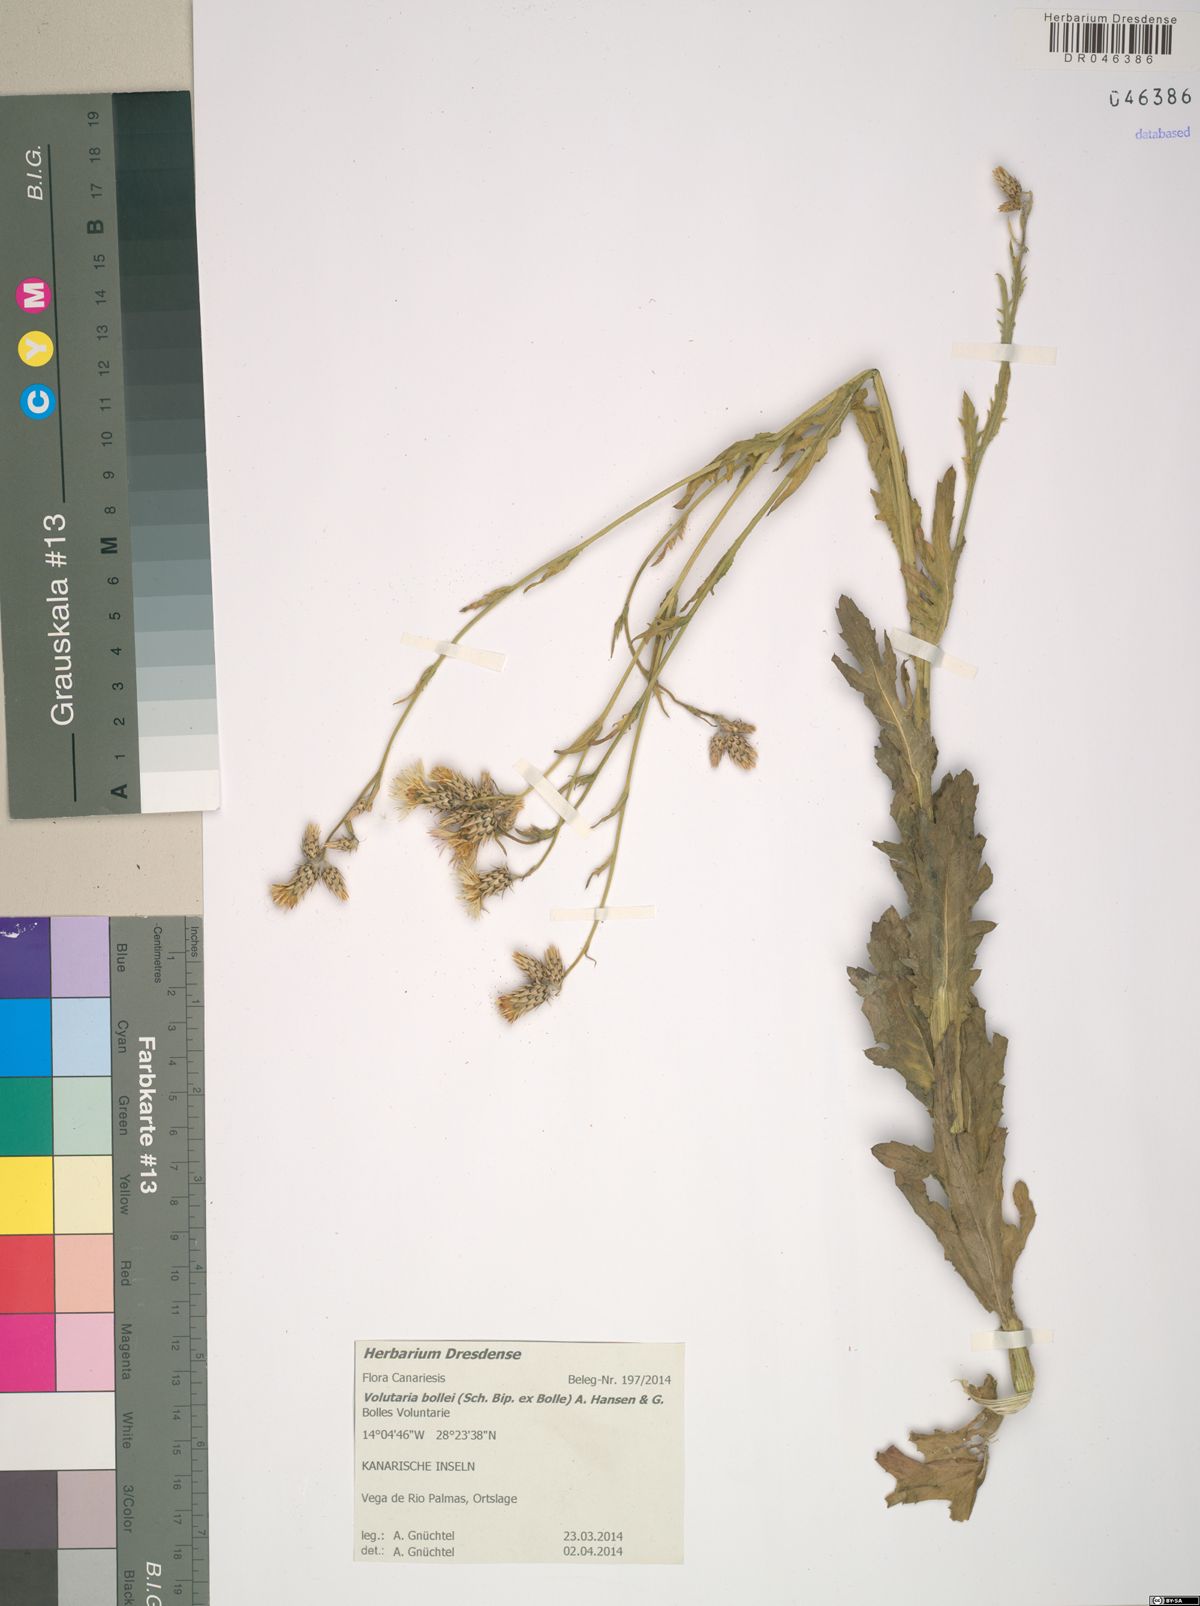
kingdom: Plantae
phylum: Tracheophyta
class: Magnoliopsida
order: Asterales
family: Asteraceae
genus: Volutaria
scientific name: Volutaria bollei
